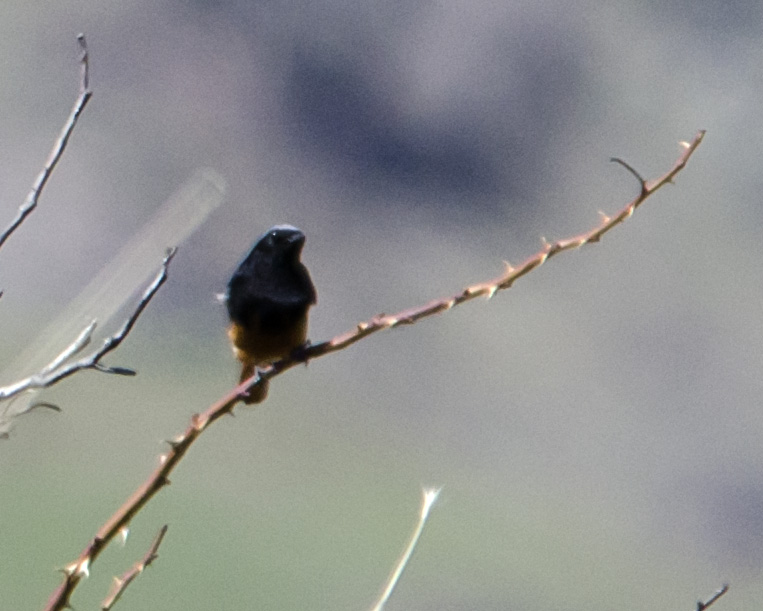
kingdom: Animalia
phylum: Chordata
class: Aves
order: Passeriformes
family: Muscicapidae
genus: Phoenicurus
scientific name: Phoenicurus ochruros
